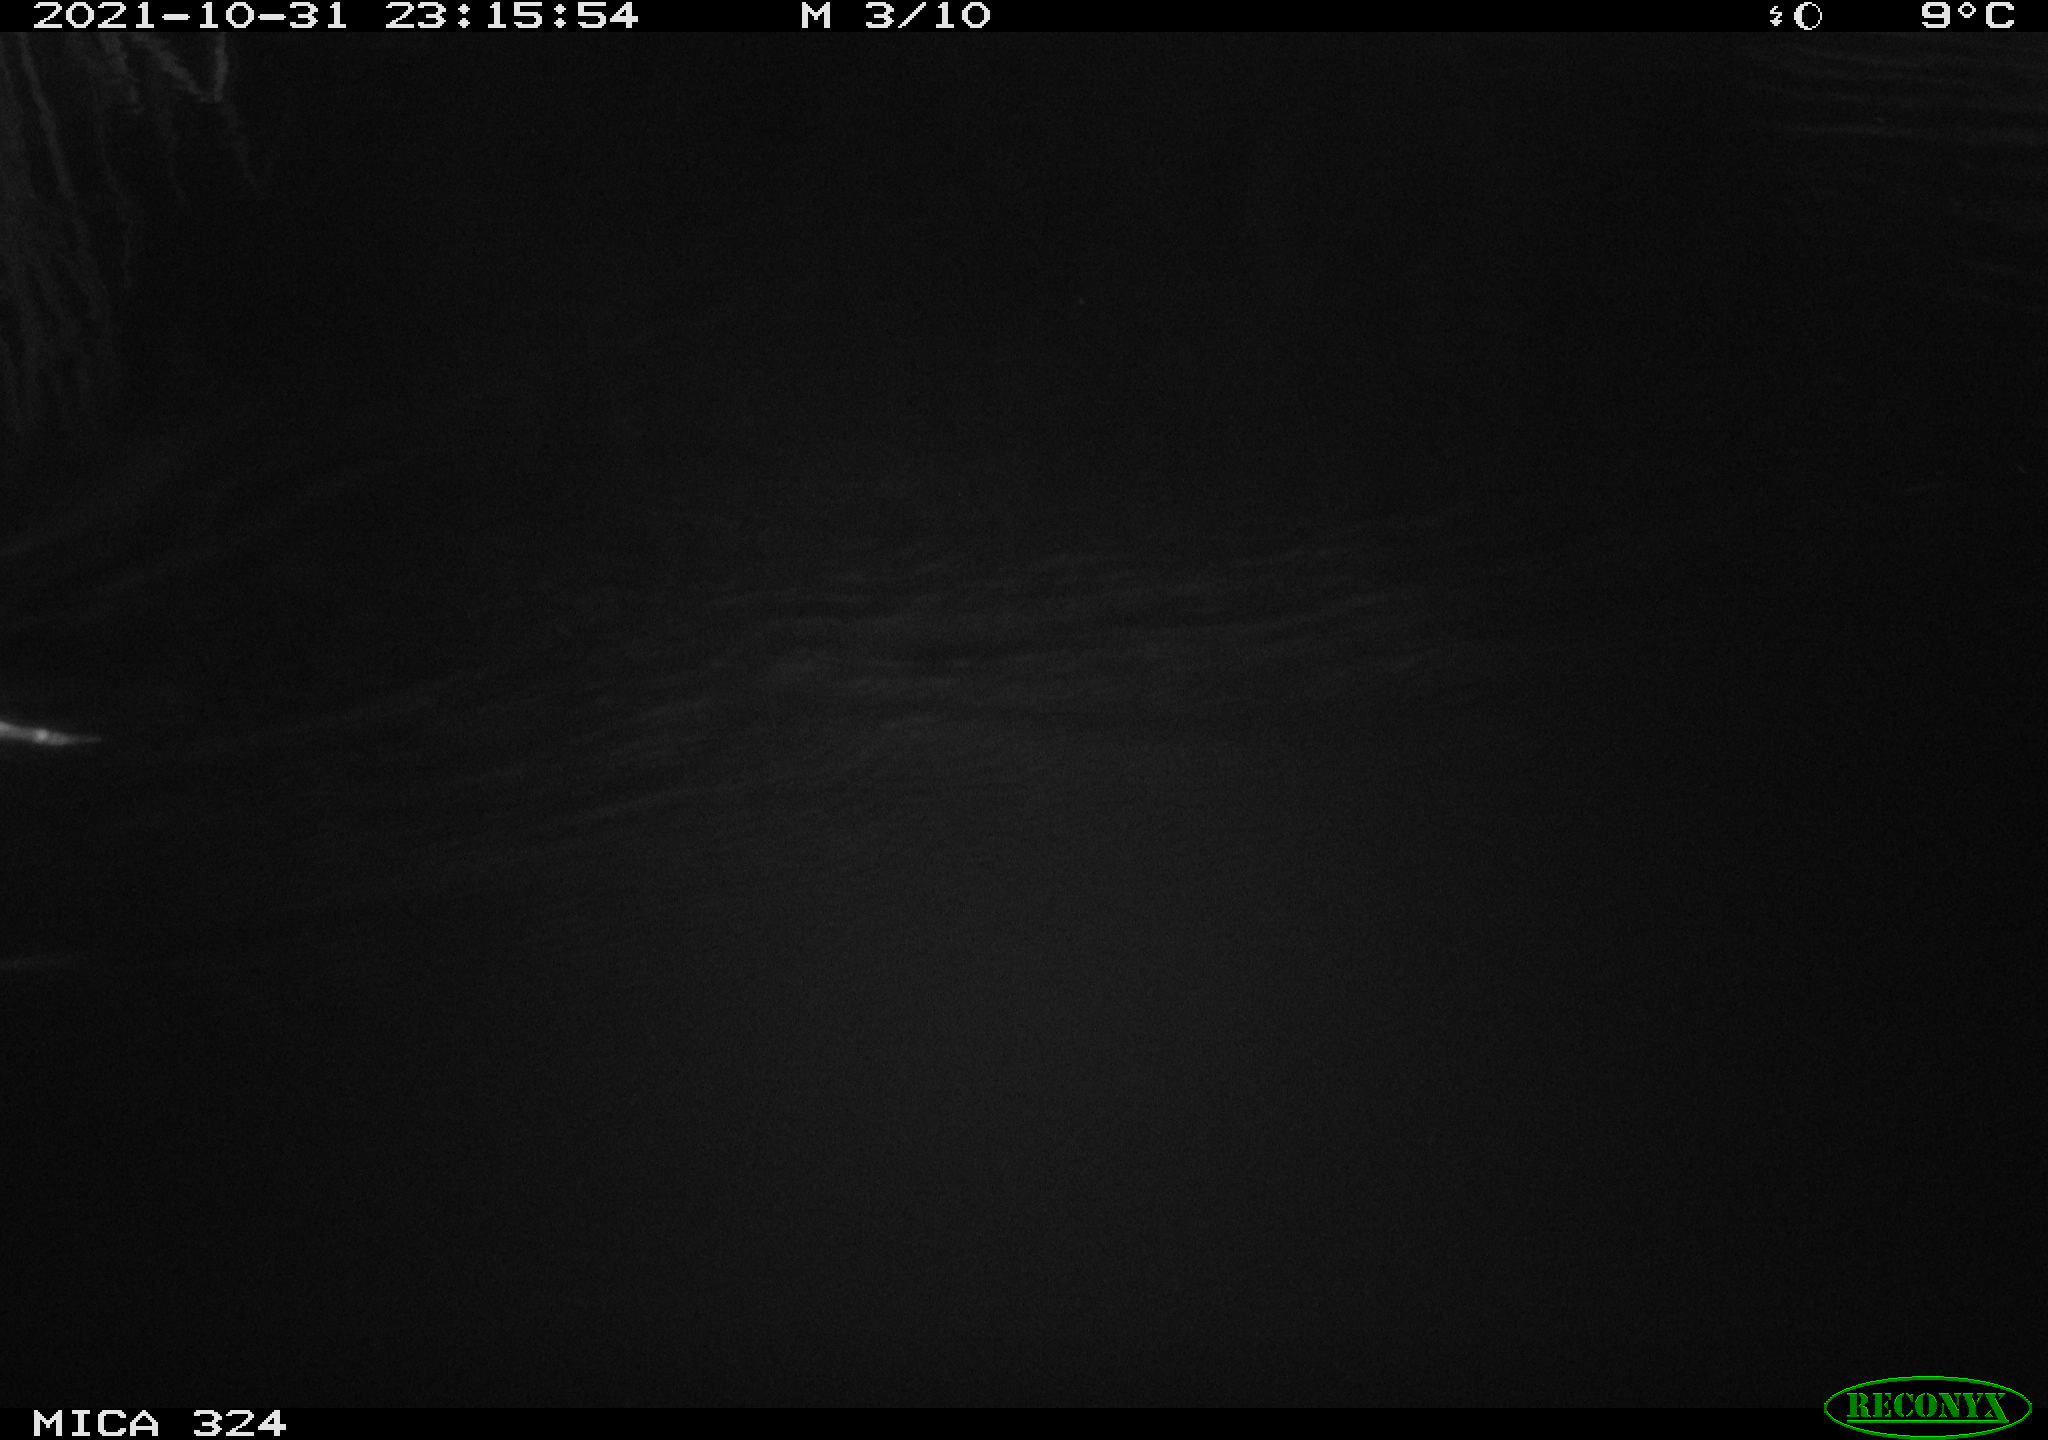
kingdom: Animalia
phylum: Chordata
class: Mammalia
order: Rodentia
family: Cricetidae
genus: Ondatra
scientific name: Ondatra zibethicus
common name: Muskrat
